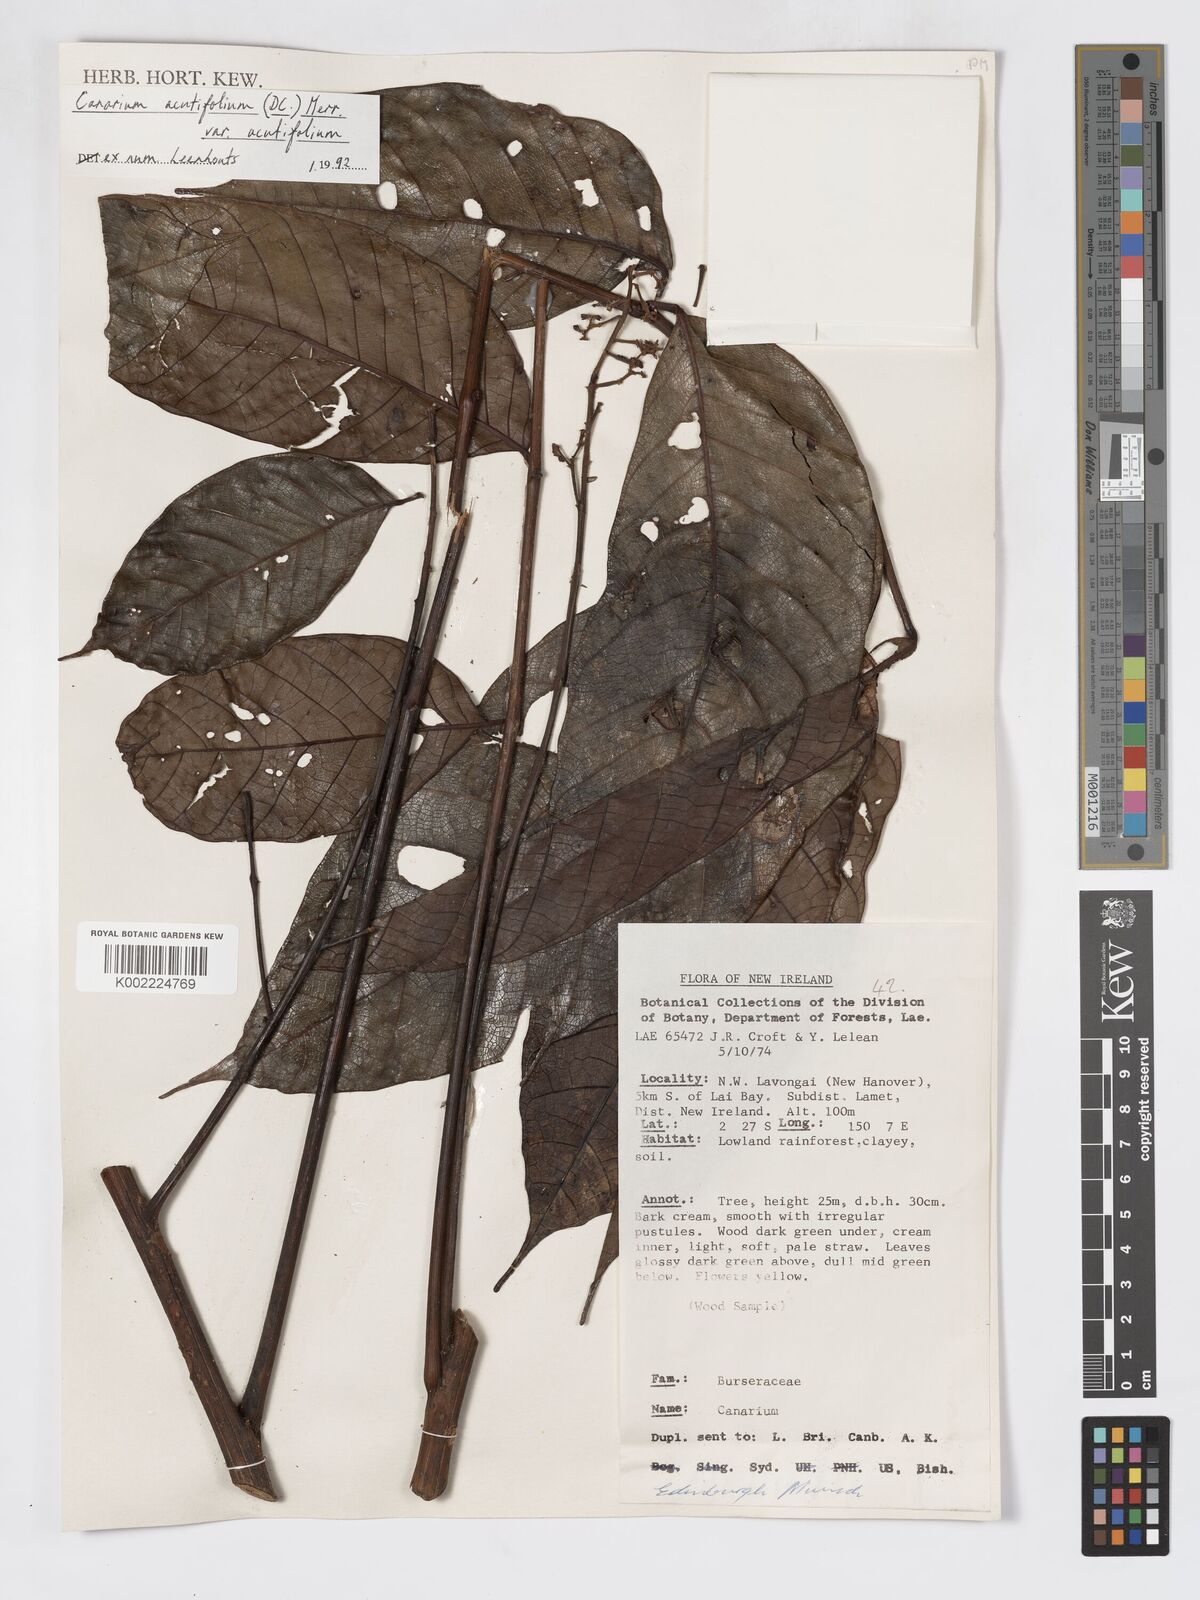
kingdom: Plantae
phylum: Tracheophyta
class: Magnoliopsida
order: Sapindales
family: Burseraceae
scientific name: Burseraceae
